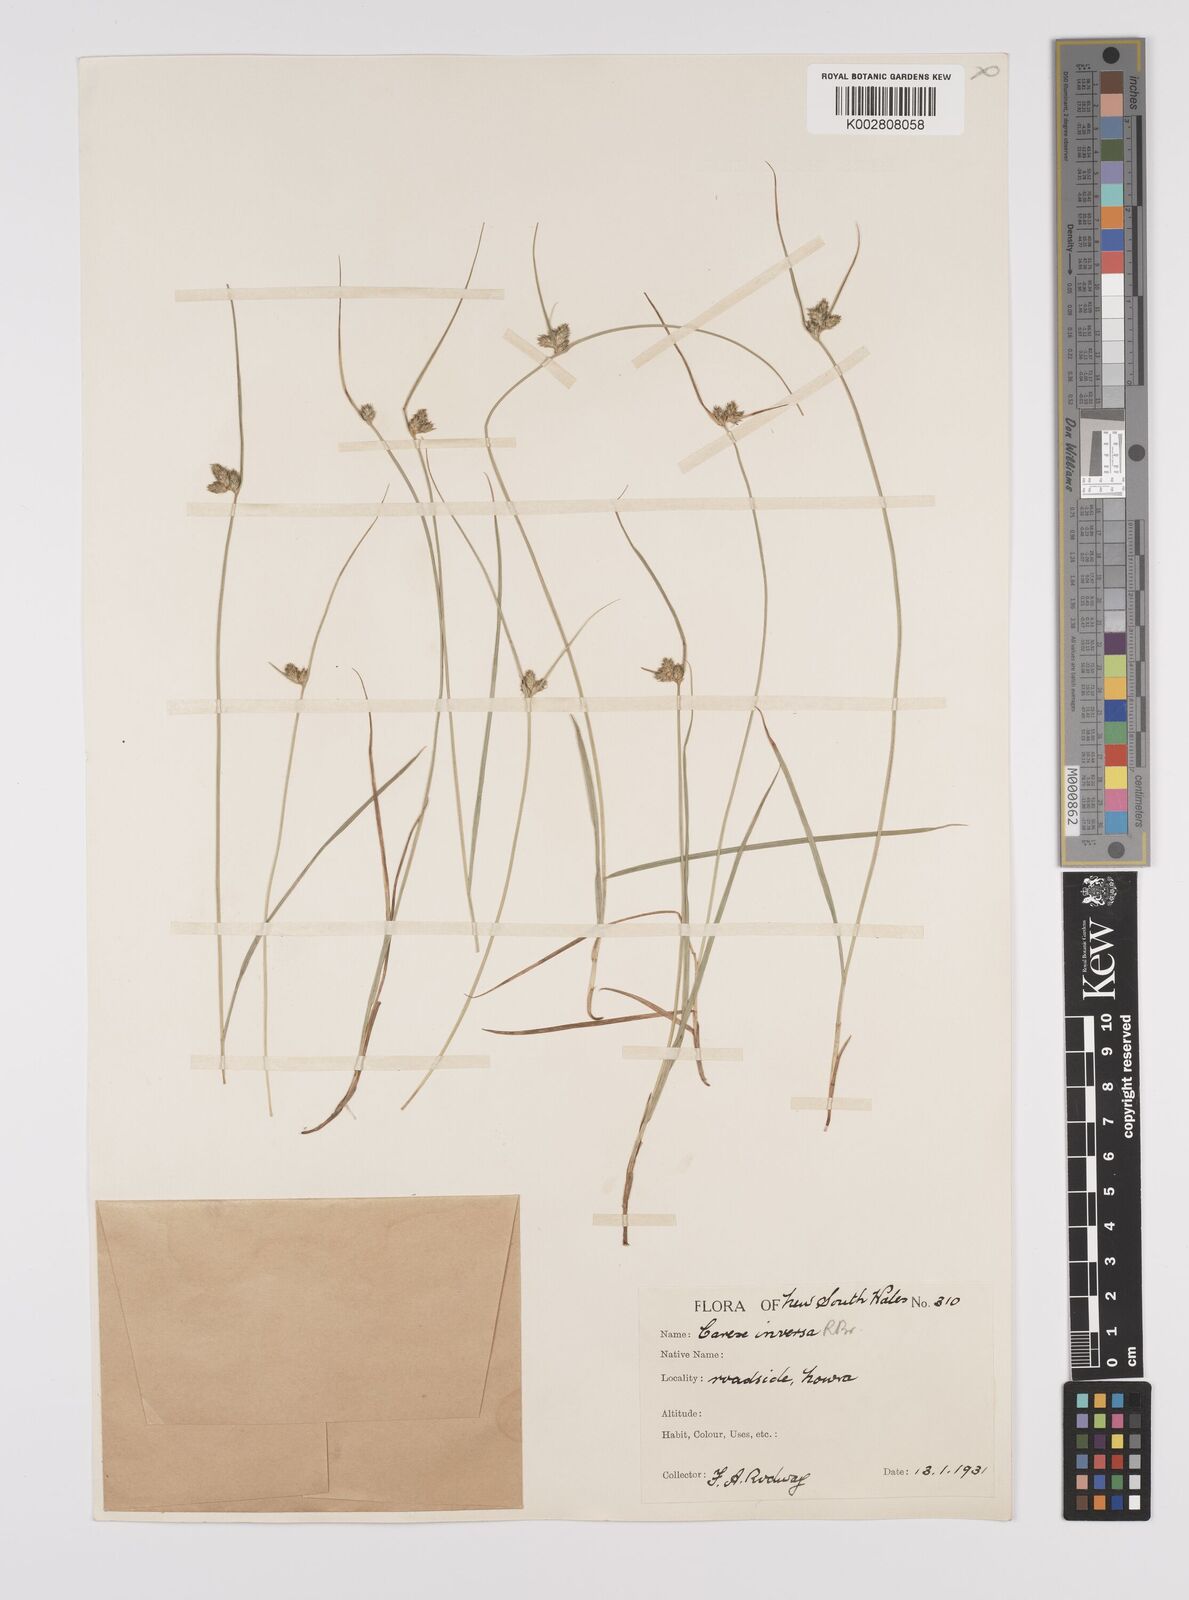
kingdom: Plantae
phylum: Tracheophyta
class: Liliopsida
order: Poales
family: Cyperaceae
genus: Carex
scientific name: Carex inversa
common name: Knob sedge
